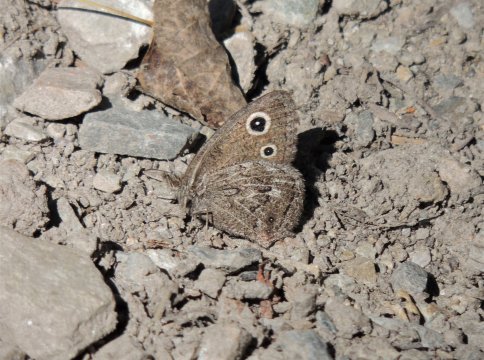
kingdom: Animalia
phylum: Arthropoda
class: Insecta
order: Lepidoptera
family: Nymphalidae
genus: Cercyonis
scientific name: Cercyonis oetus
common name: Small Wood-Nymph
